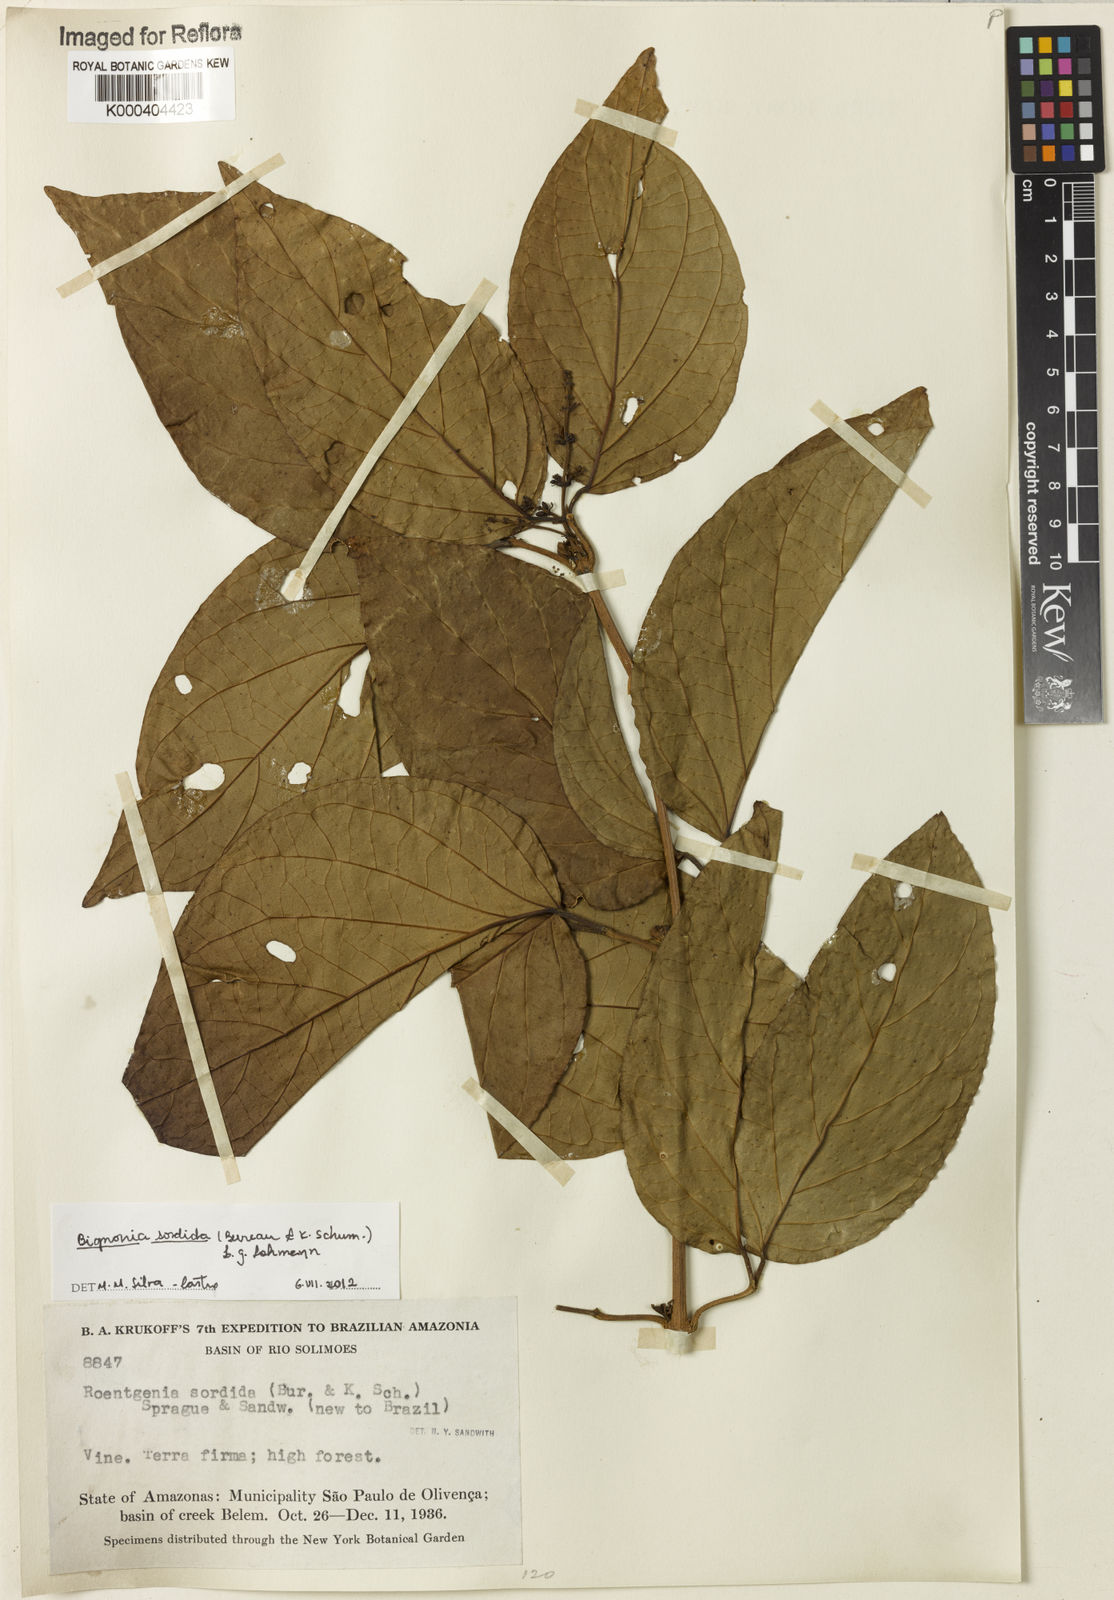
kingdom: Plantae
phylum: Tracheophyta
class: Magnoliopsida
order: Lamiales
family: Bignoniaceae
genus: Bignonia
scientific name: Bignonia sordida
